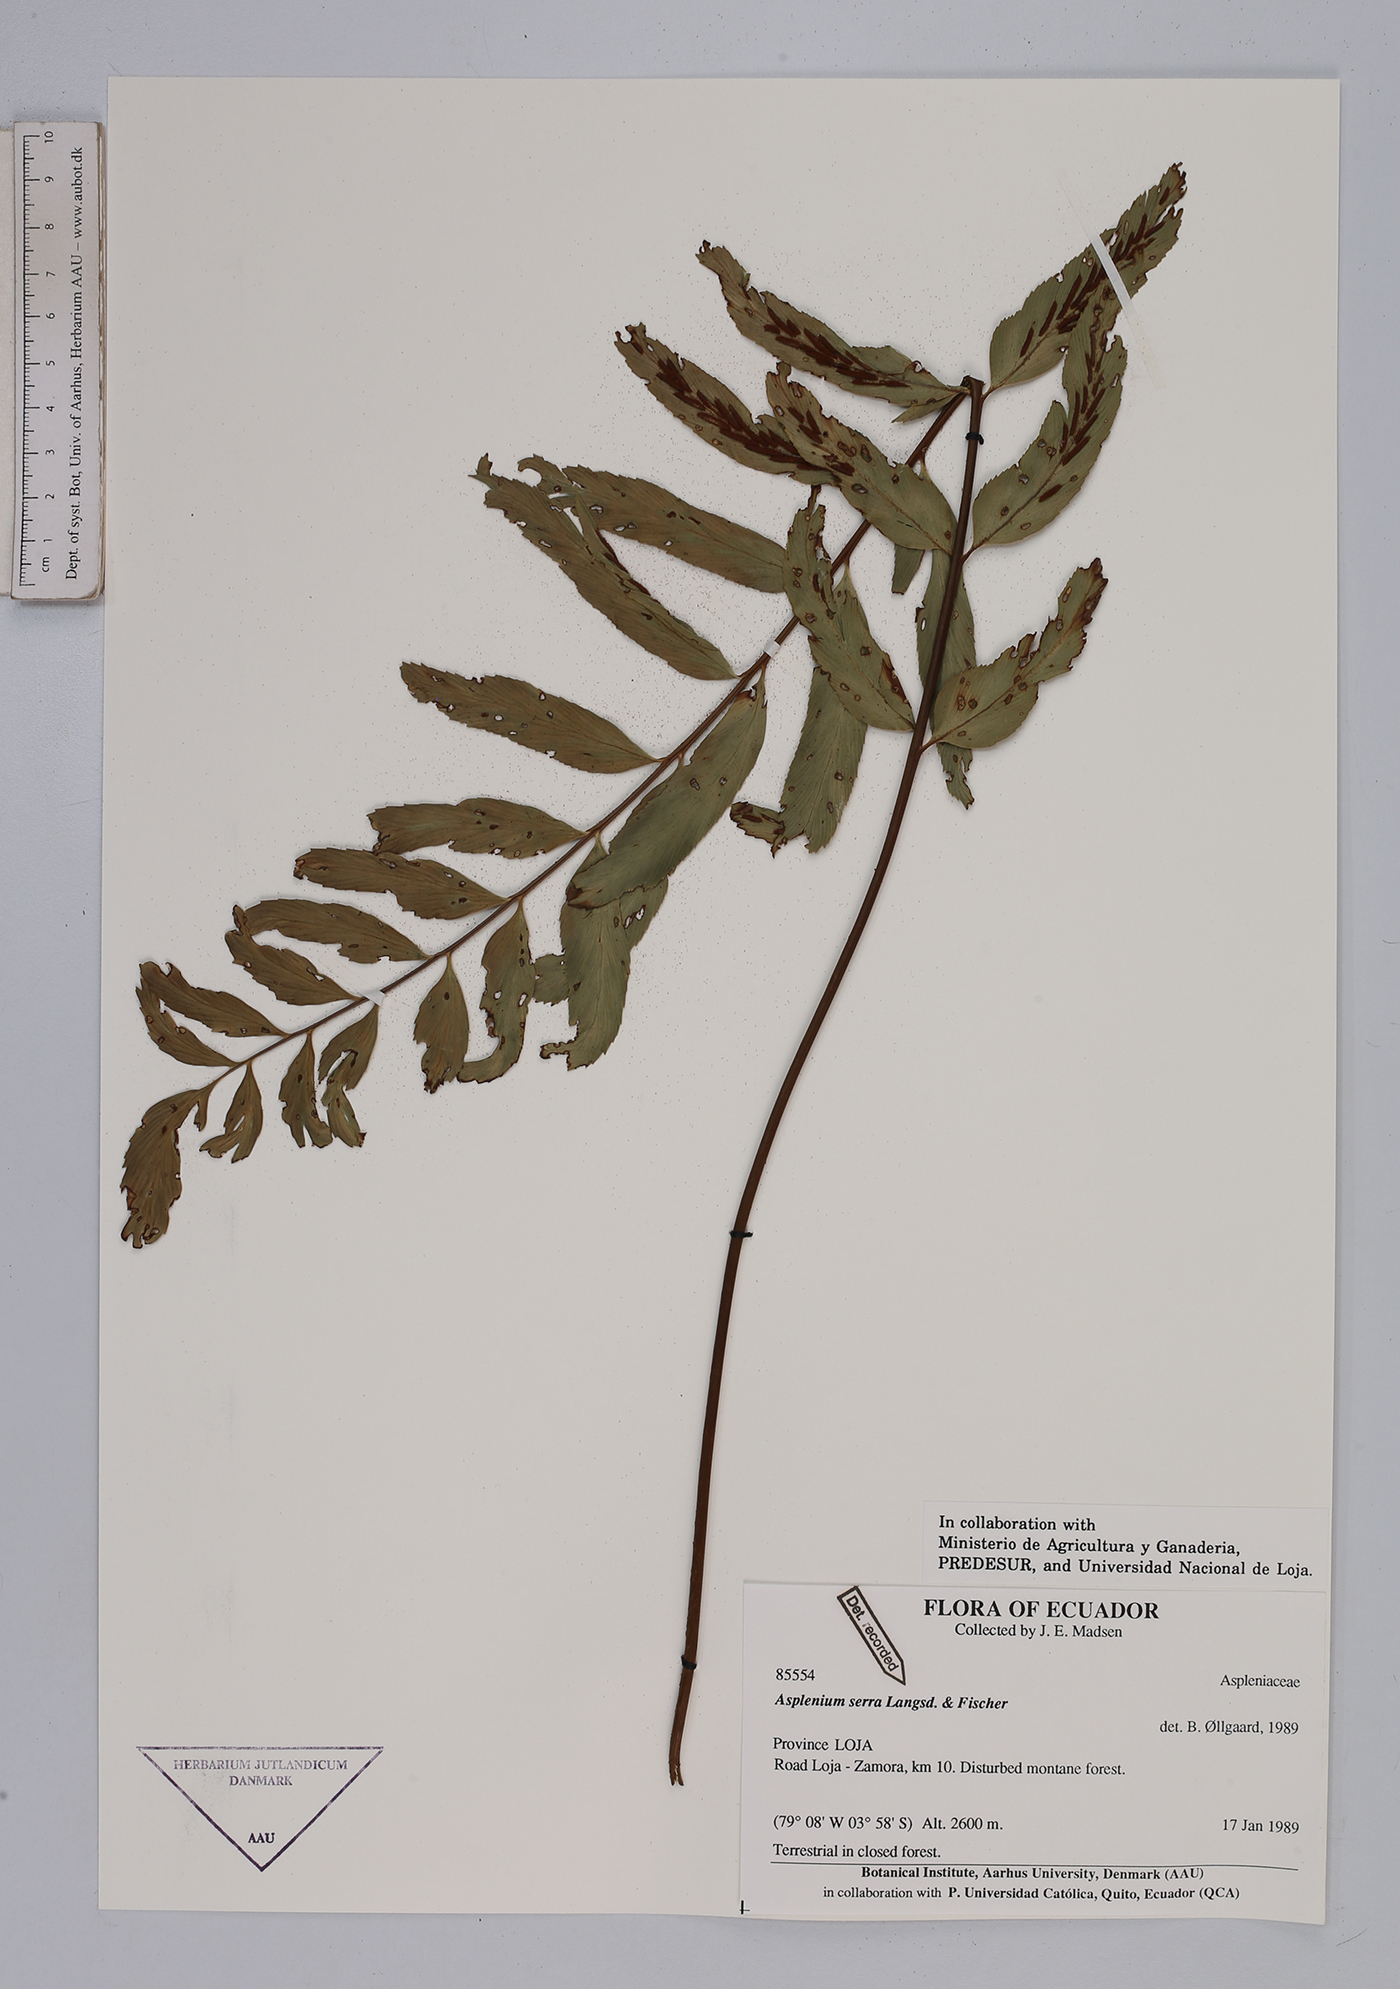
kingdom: Plantae
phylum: Tracheophyta
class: Polypodiopsida
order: Polypodiales
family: Aspleniaceae
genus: Asplenium
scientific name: Asplenium serra
